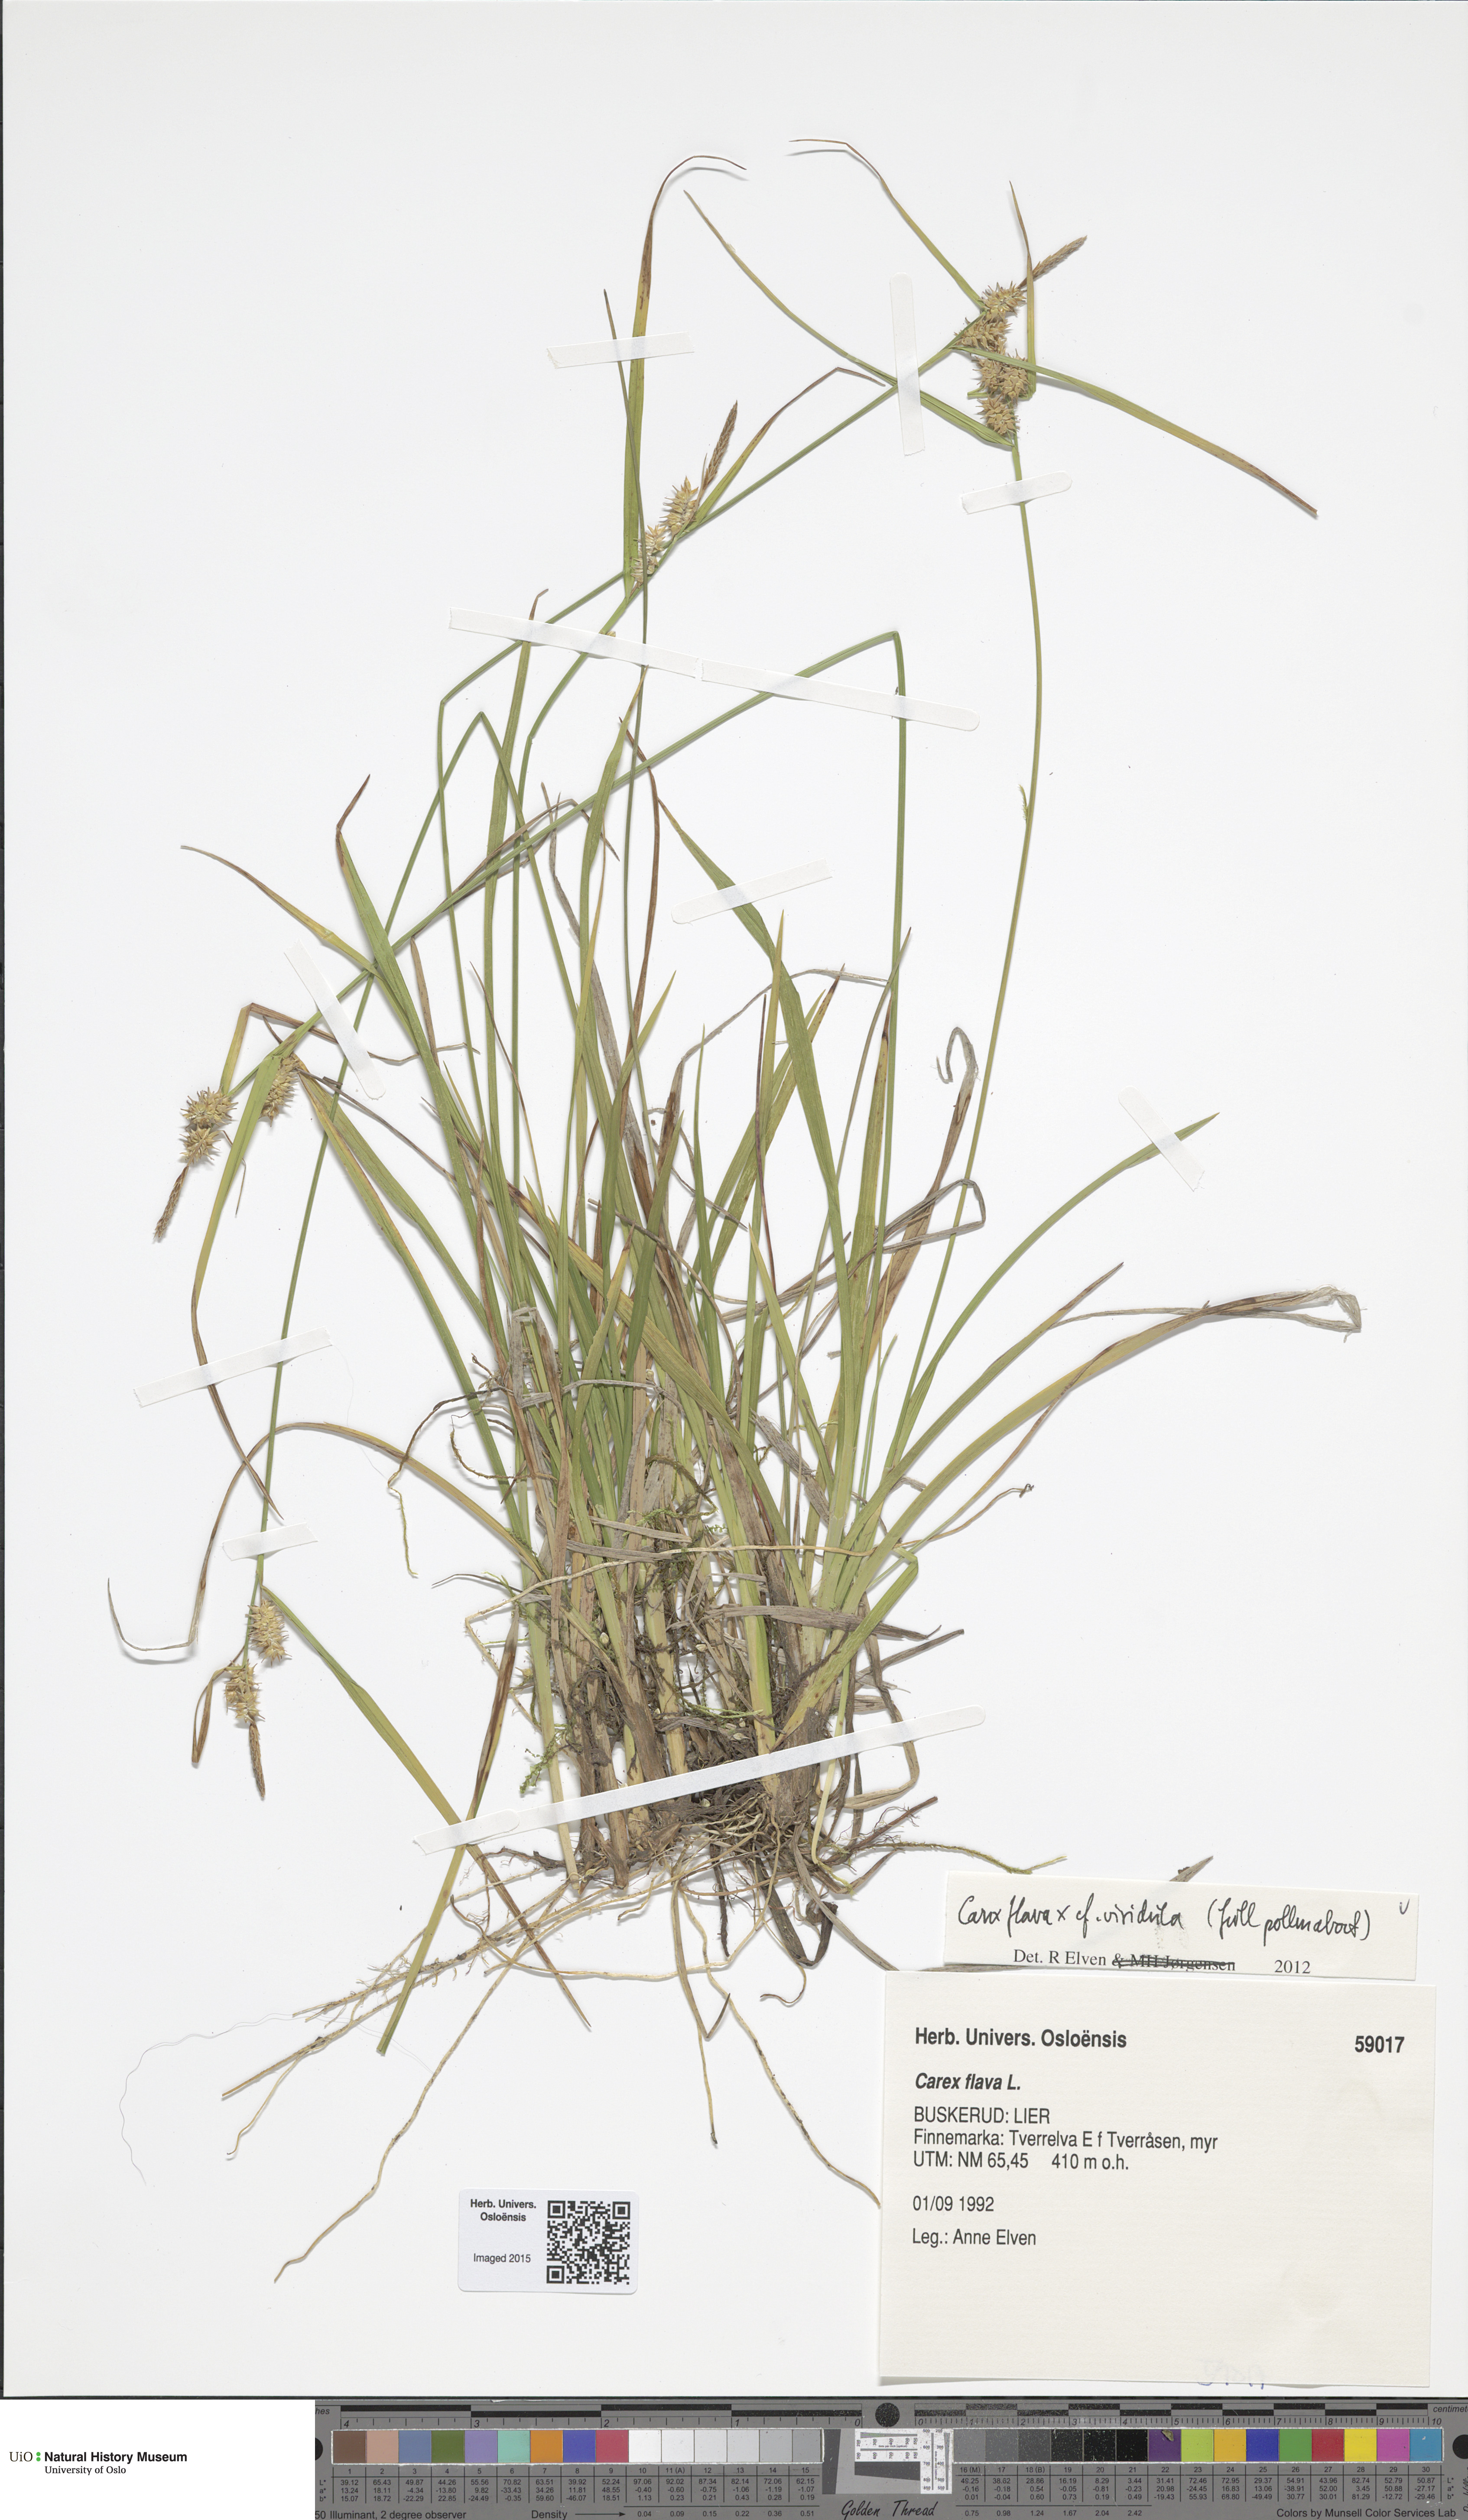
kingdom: Plantae
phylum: Tracheophyta
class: Liliopsida
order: Poales
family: Cyperaceae
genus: Carex
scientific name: Carex
